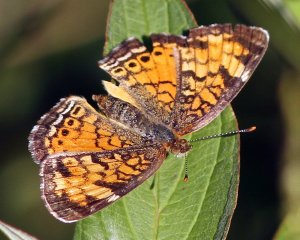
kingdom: Animalia
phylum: Arthropoda
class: Insecta
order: Lepidoptera
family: Nymphalidae
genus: Phyciodes
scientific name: Phyciodes tharos
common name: Northern Crescent
